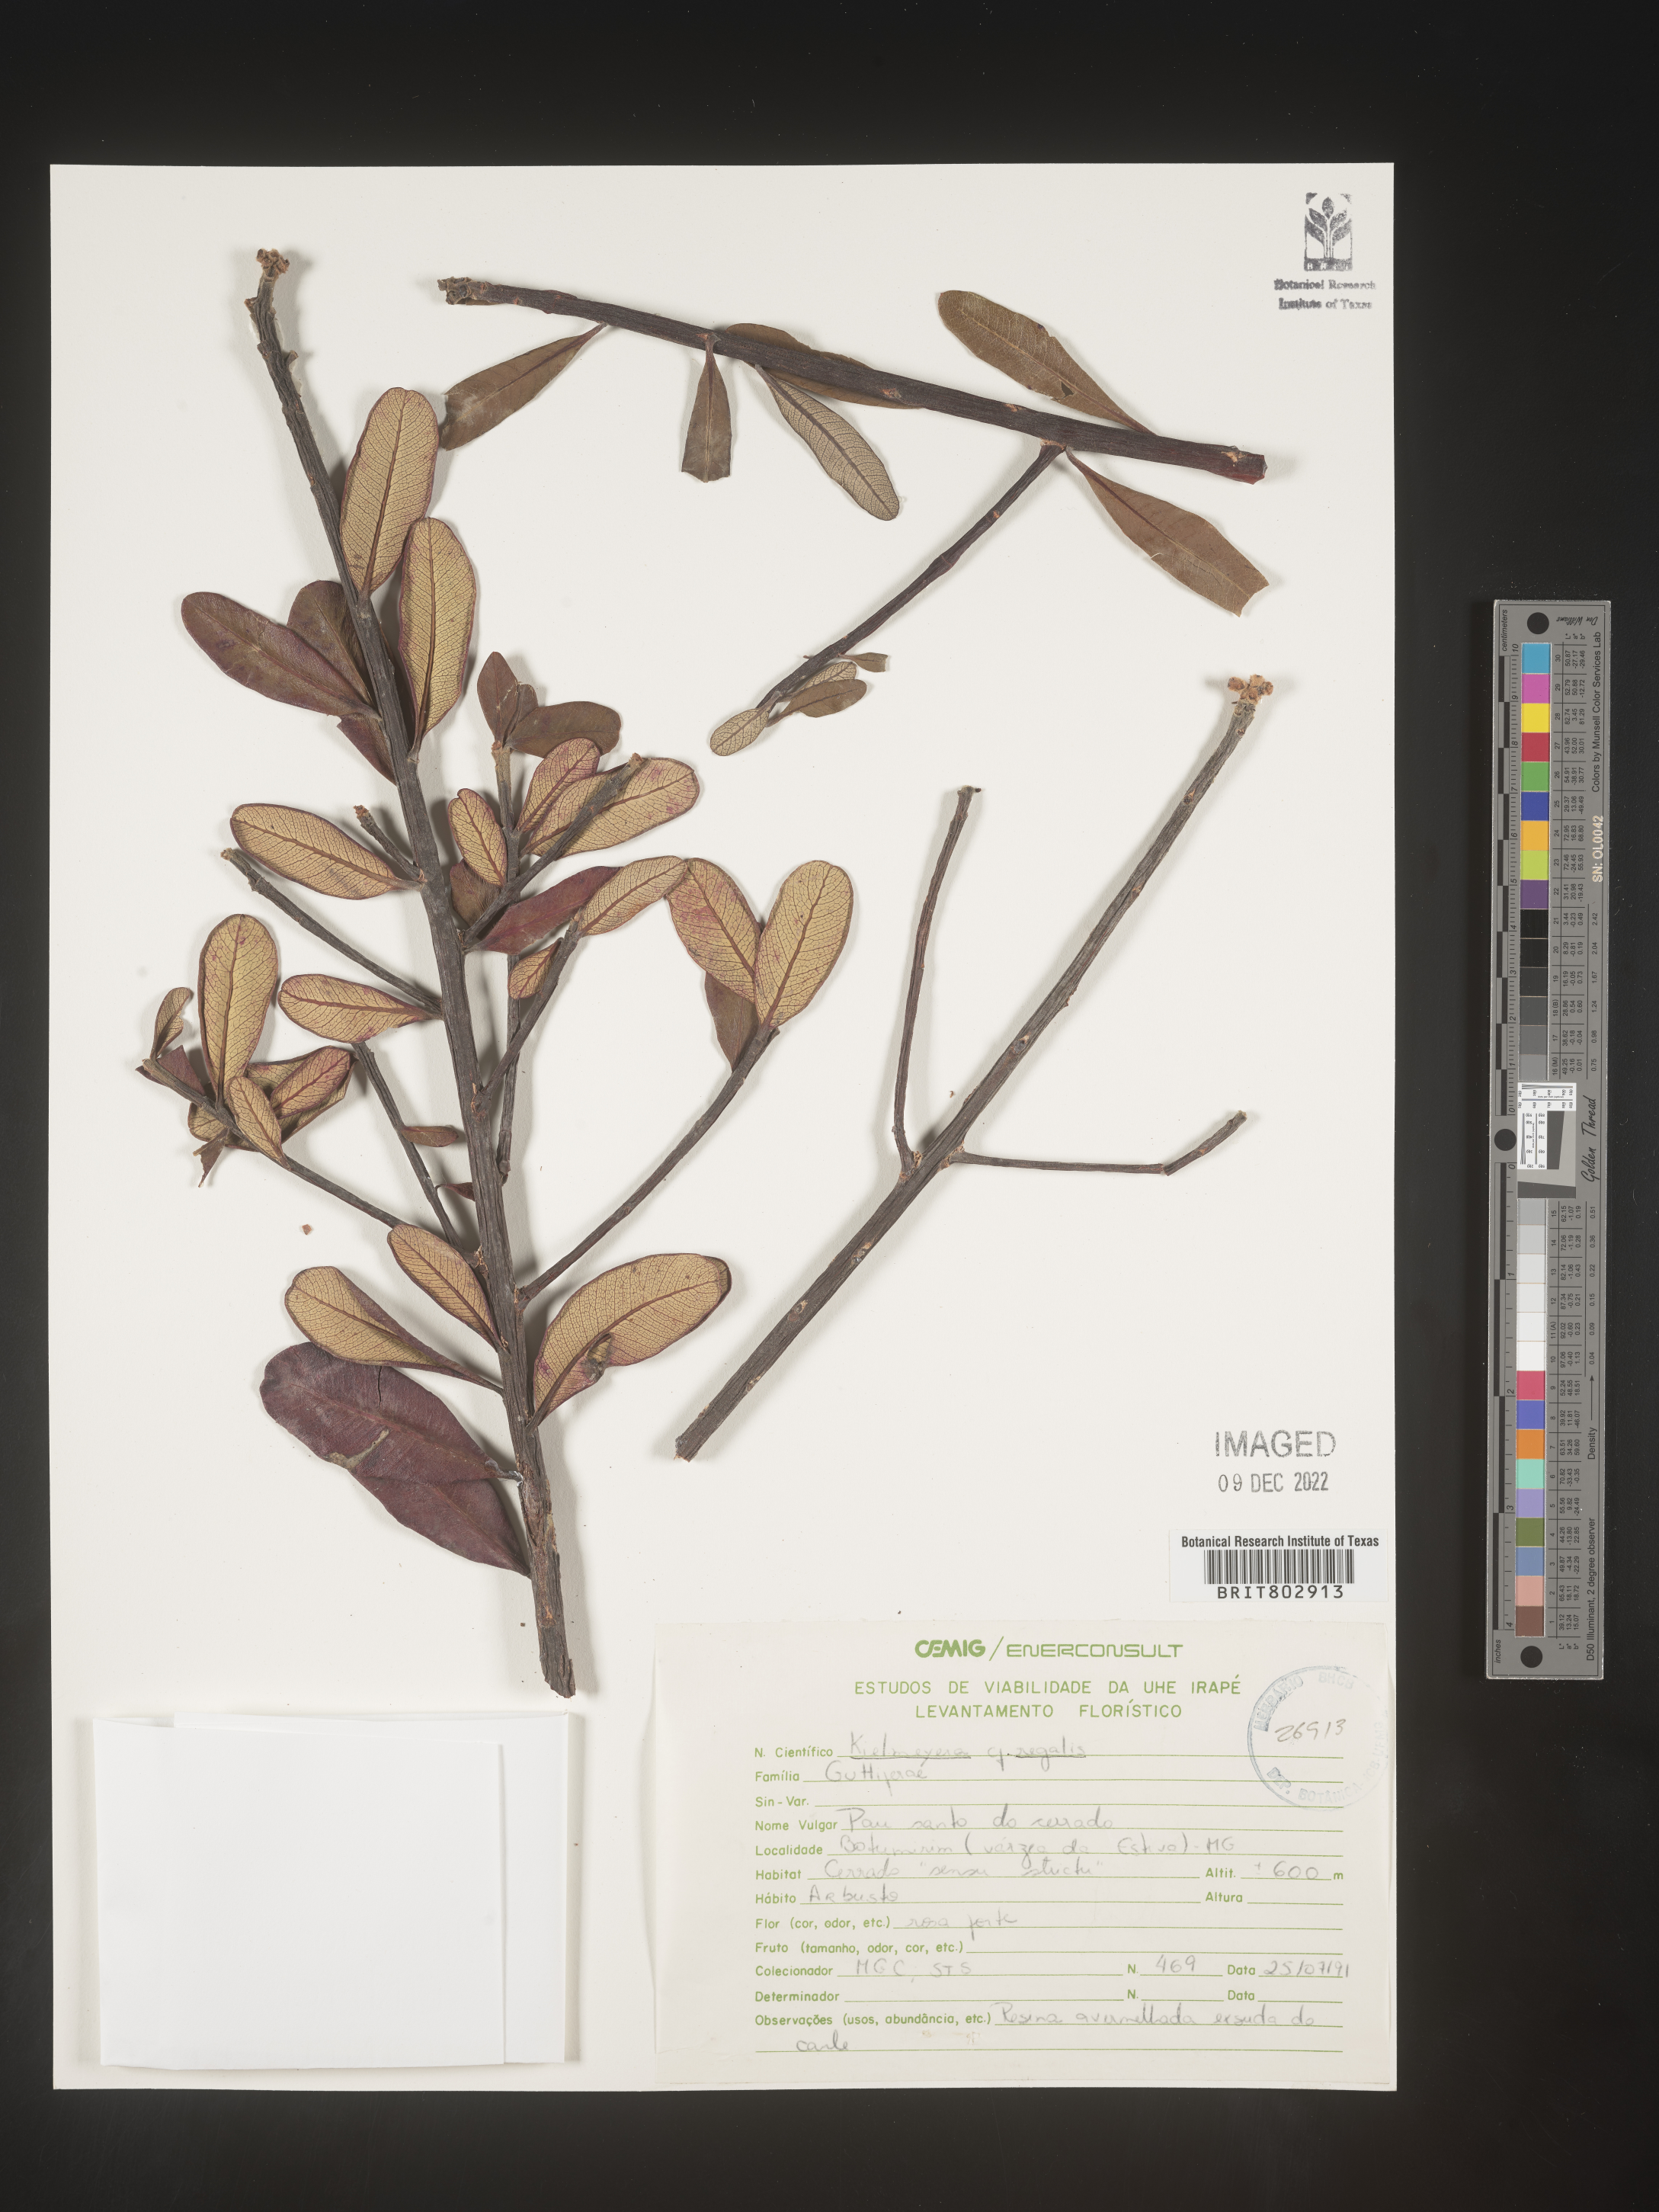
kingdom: Plantae
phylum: Tracheophyta
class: Magnoliopsida
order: Malpighiales
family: Calophyllaceae
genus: Kielmeyera
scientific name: Kielmeyera
